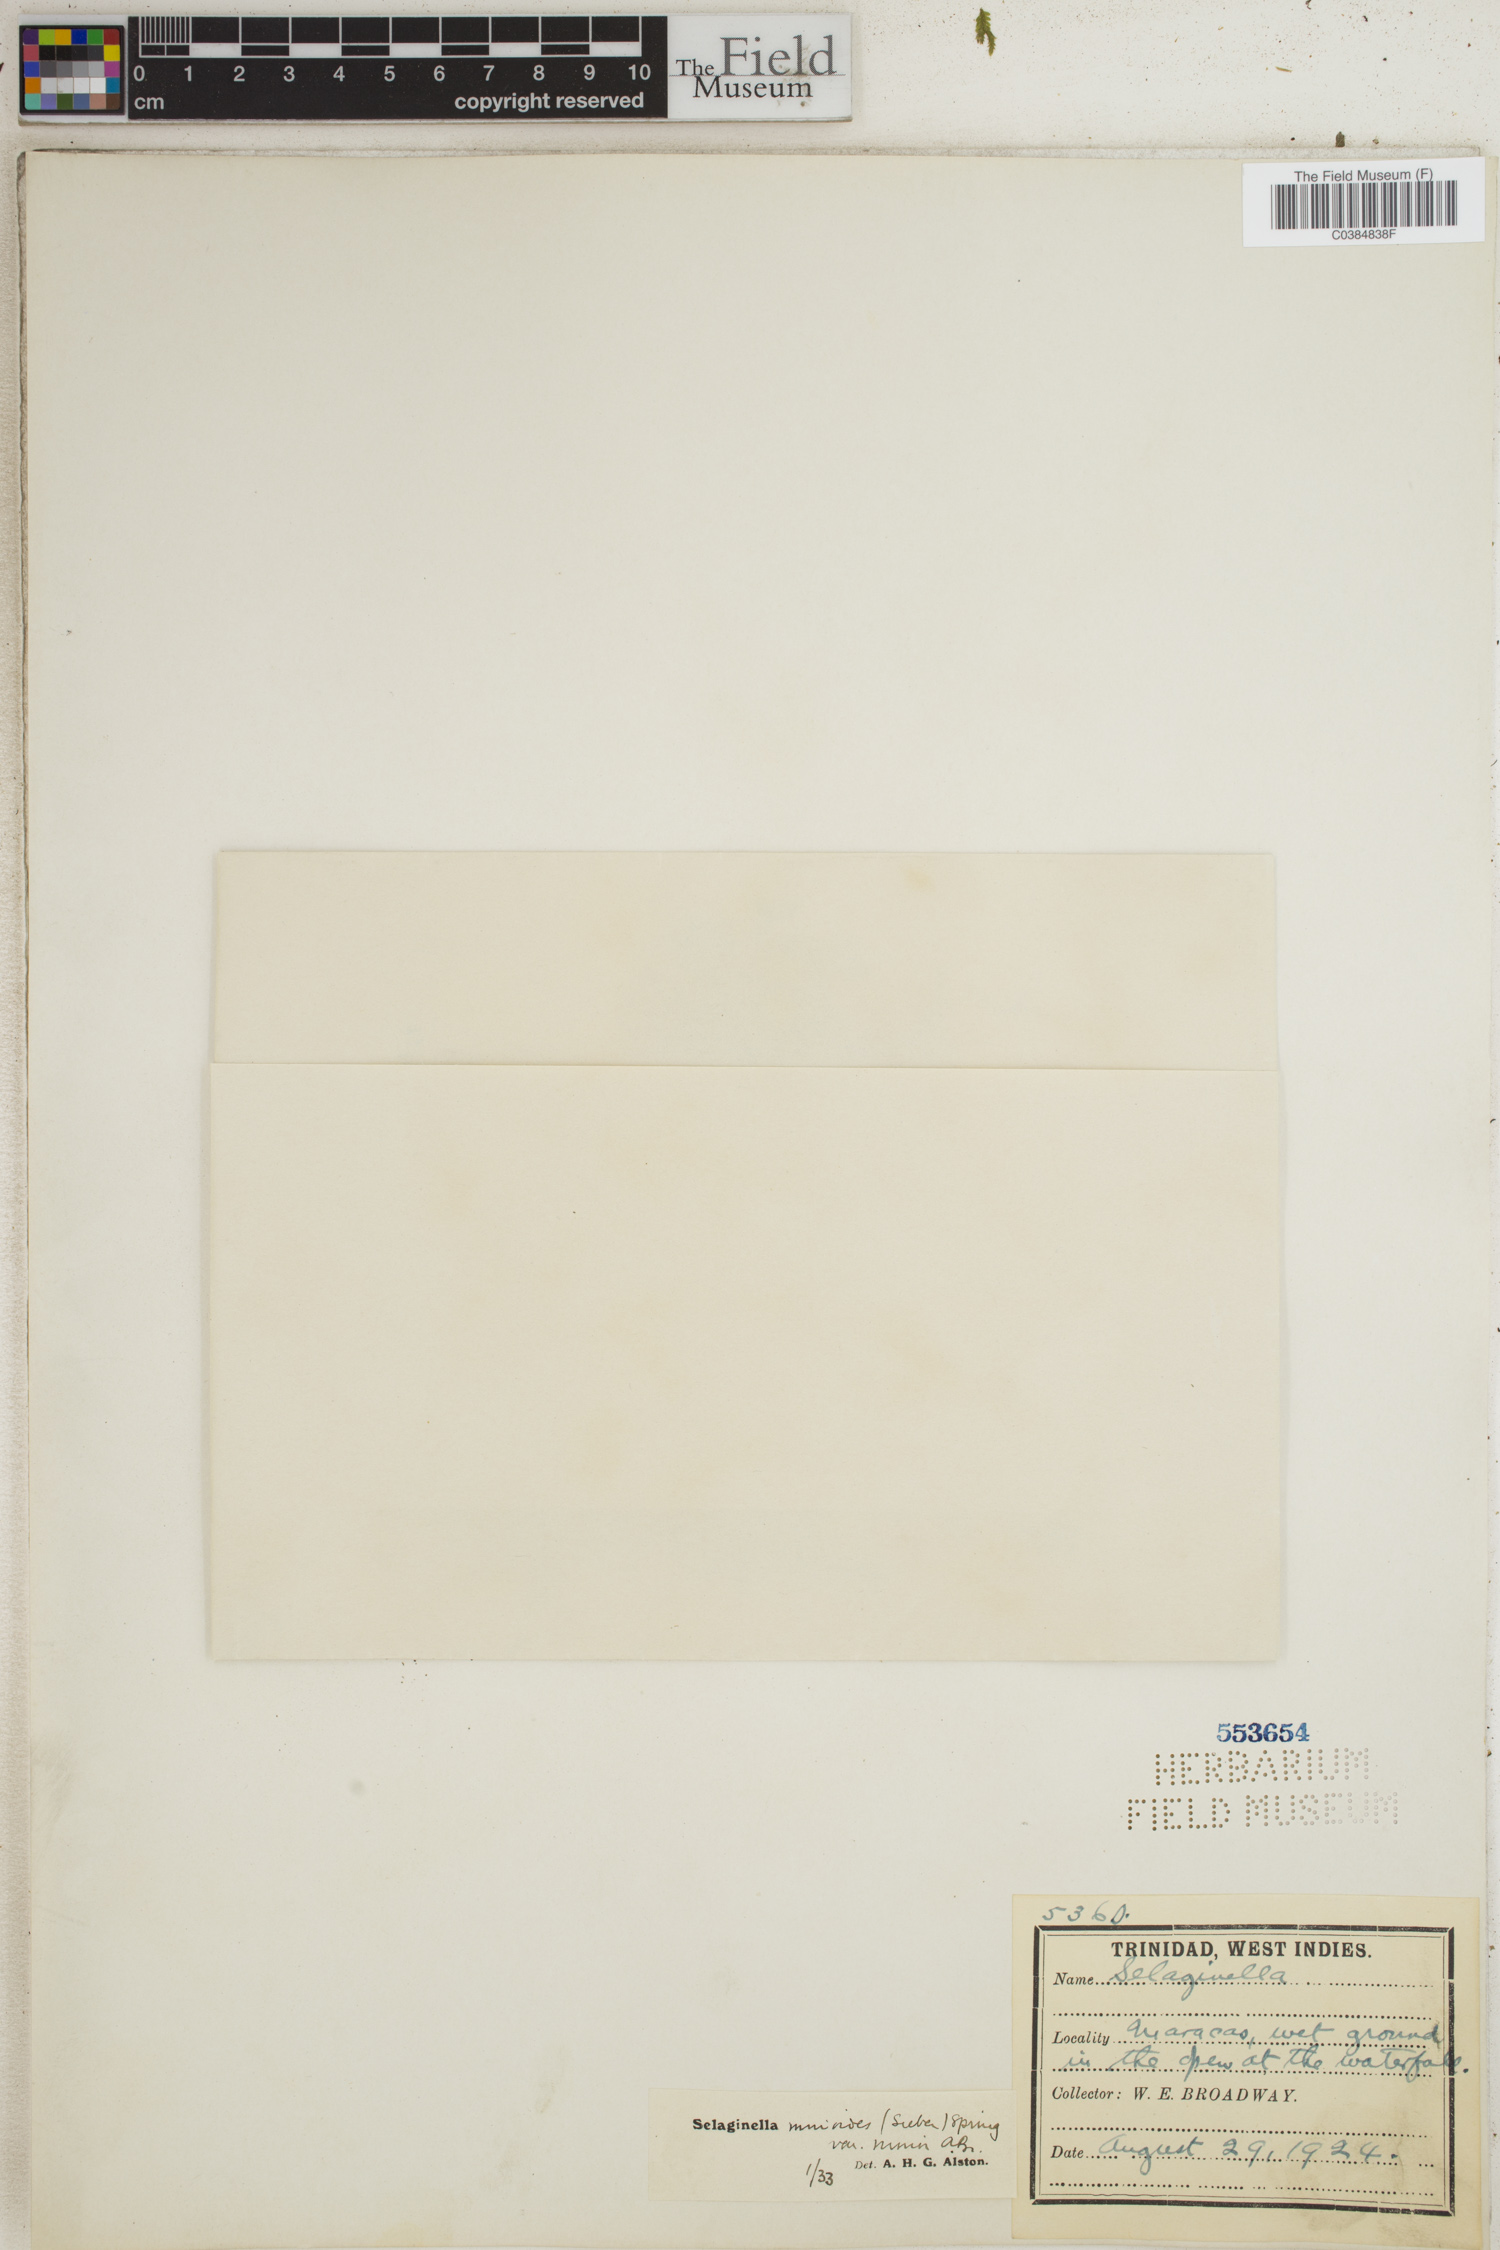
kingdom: Plantae
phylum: Tracheophyta
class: Lycopodiopsida
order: Selaginellales
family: Selaginellaceae
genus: Selaginella
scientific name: Selaginella diffusa
